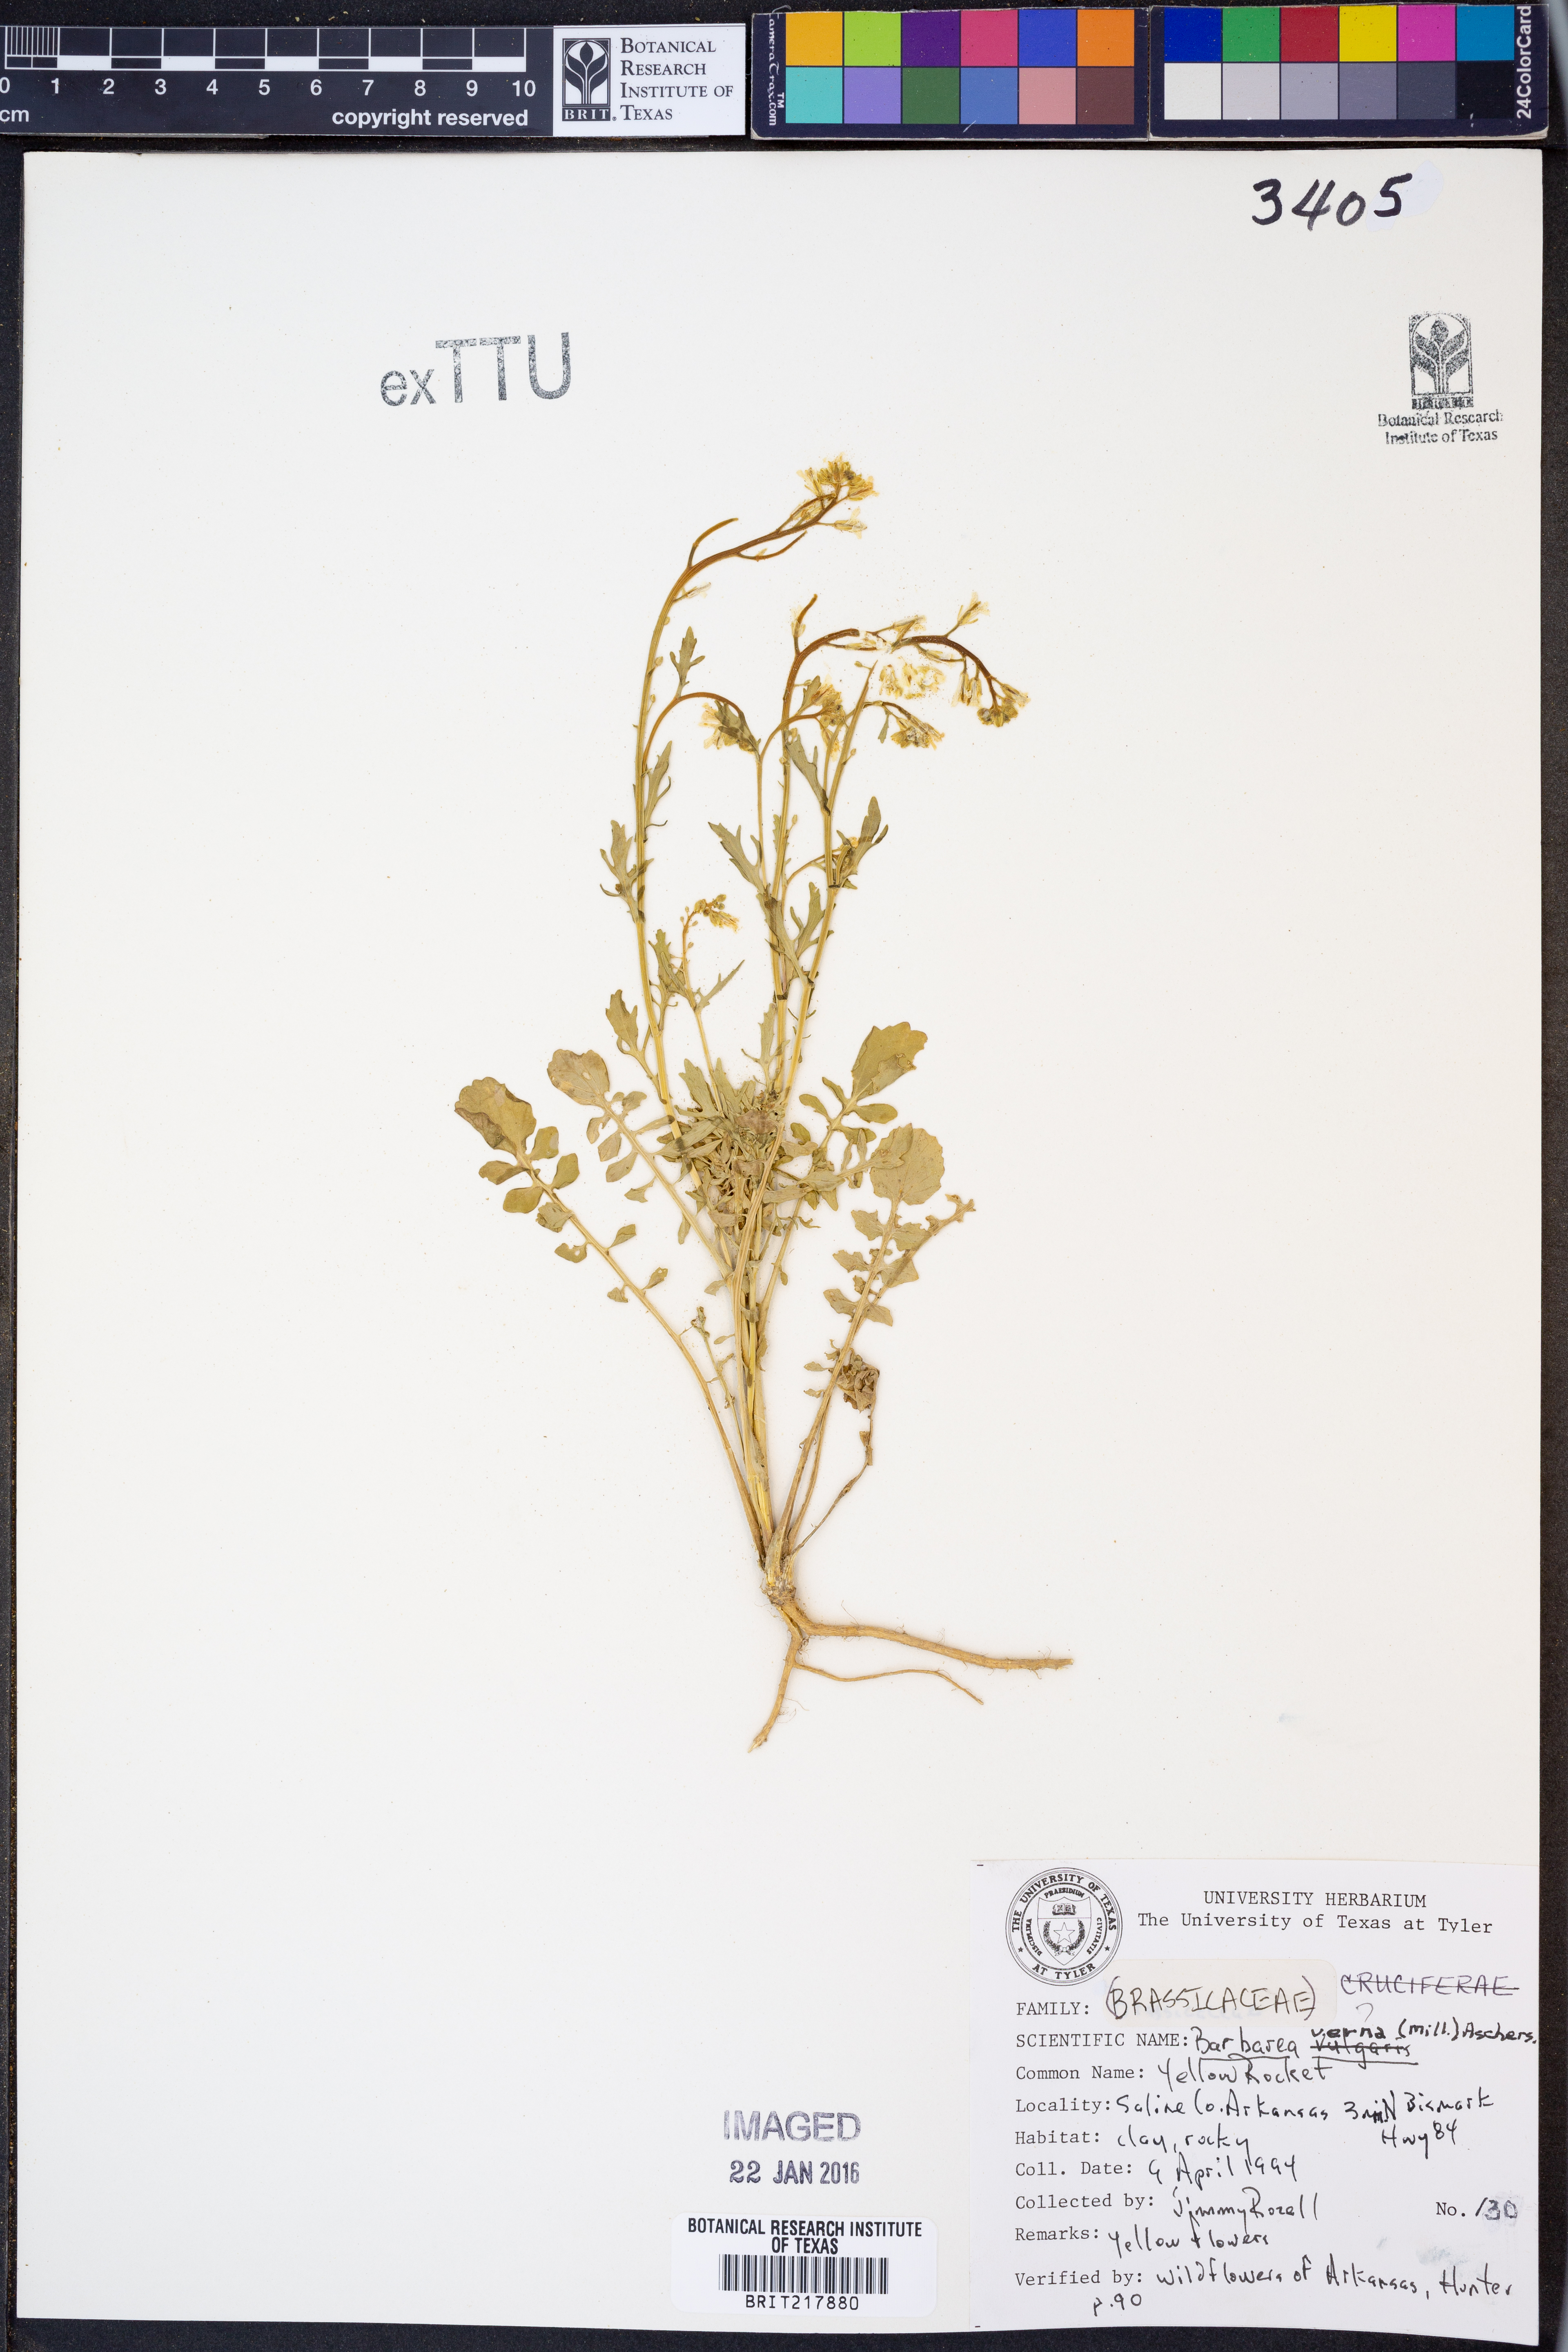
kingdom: Plantae
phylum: Tracheophyta
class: Magnoliopsida
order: Brassicales
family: Brassicaceae
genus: Barbarea
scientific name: Barbarea verna
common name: American cress
